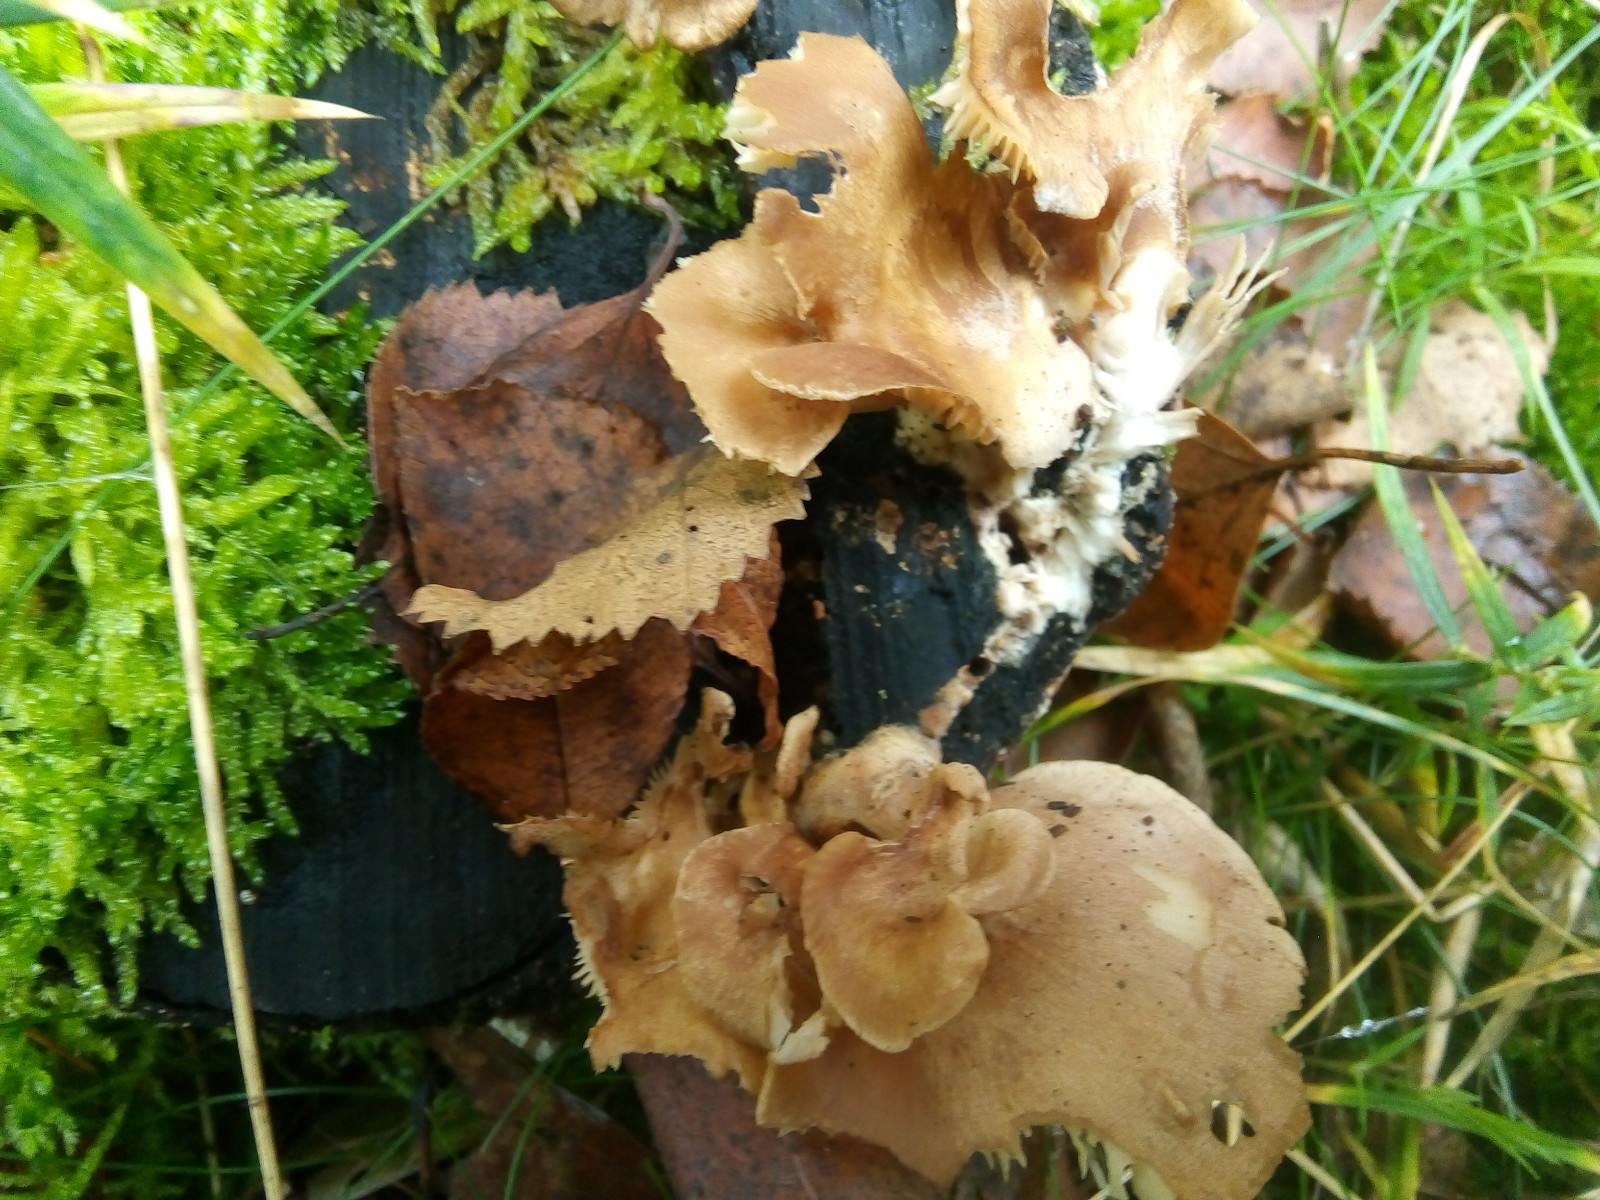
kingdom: Fungi
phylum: Basidiomycota
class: Agaricomycetes
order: Polyporales
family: Panaceae
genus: Panus
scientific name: Panus conchatus
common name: filtstokket læderhat
